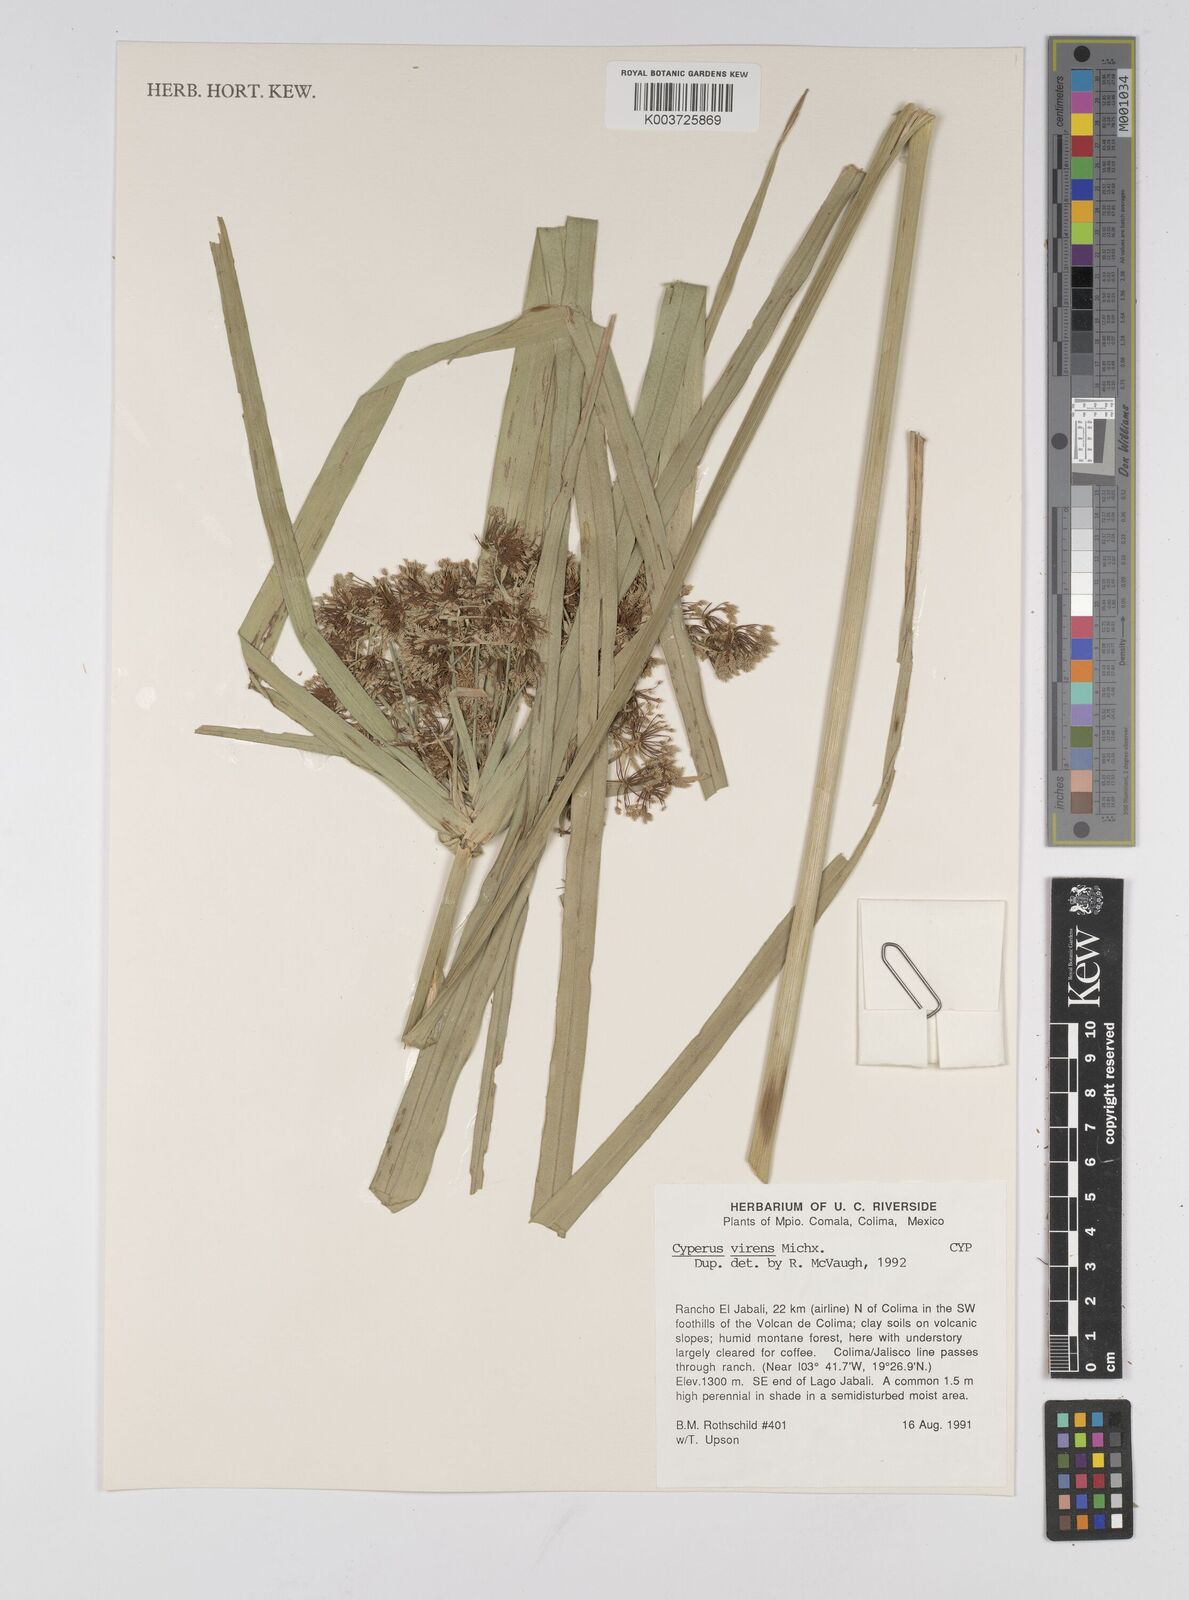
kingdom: Plantae
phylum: Tracheophyta
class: Liliopsida
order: Poales
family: Cyperaceae
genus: Cyperus
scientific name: Cyperus virens
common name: Green flatsedge
